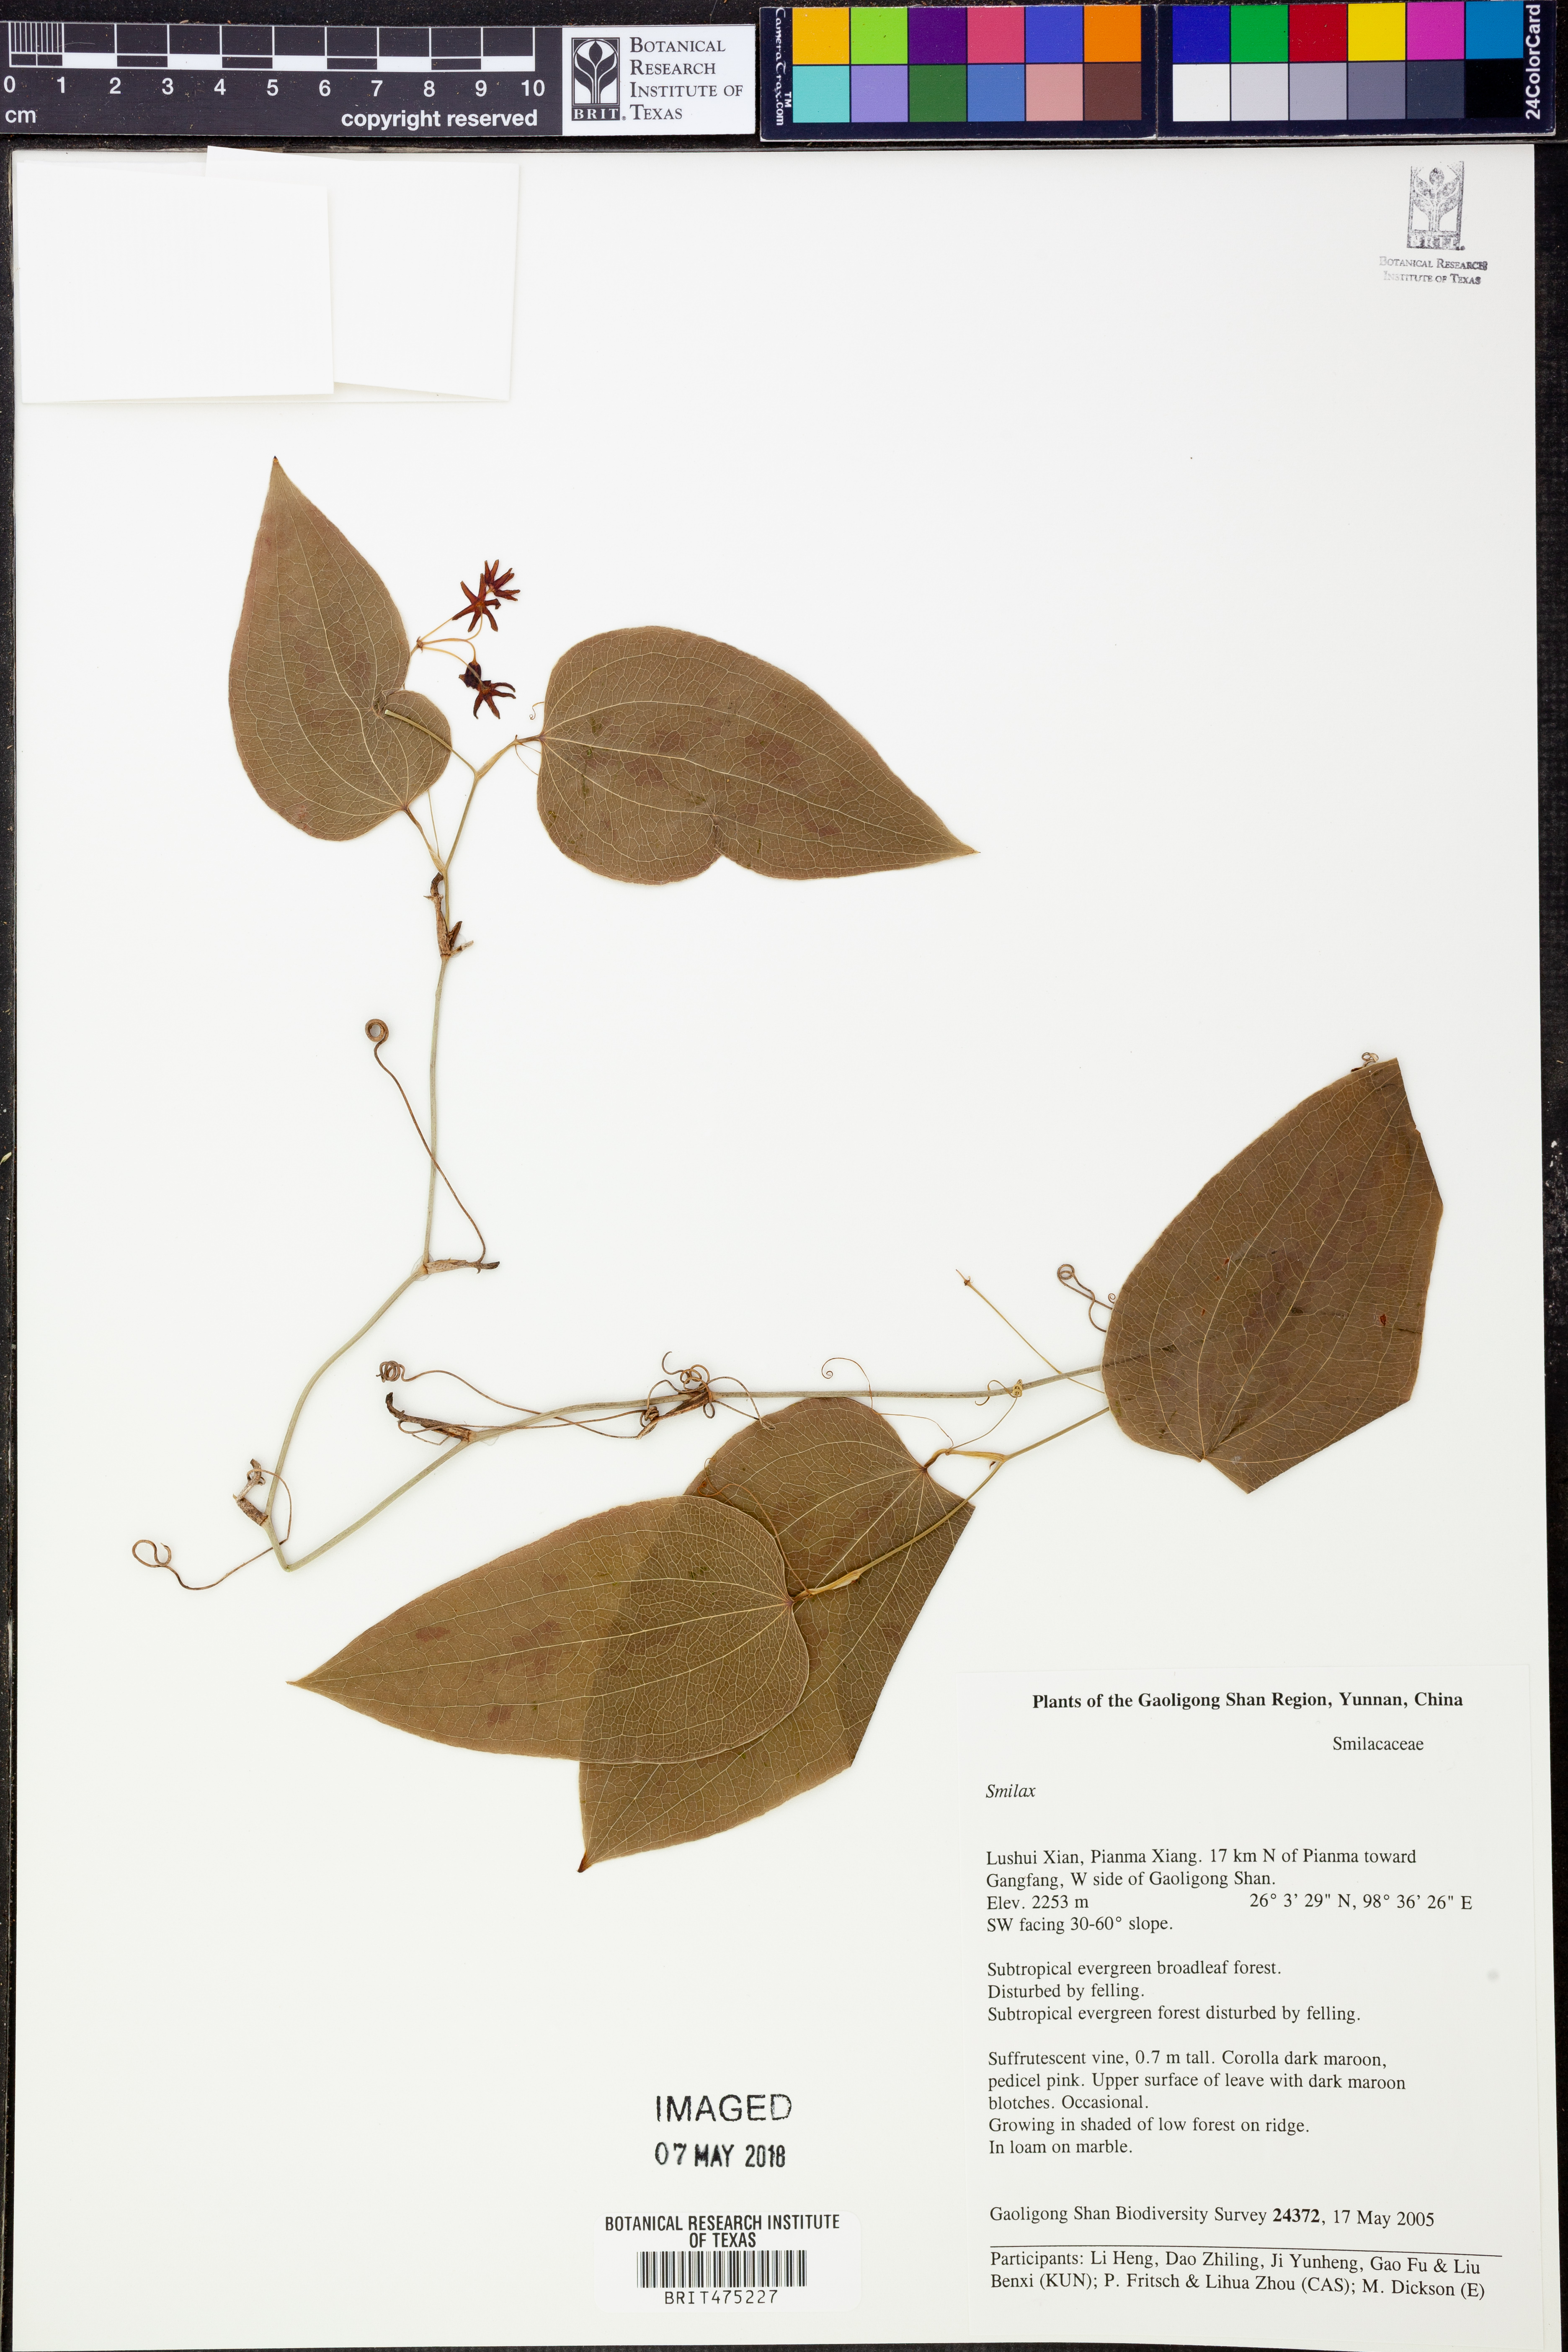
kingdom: Plantae
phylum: Tracheophyta
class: Liliopsida
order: Liliales
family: Smilacaceae
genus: Smilax
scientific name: Smilax
